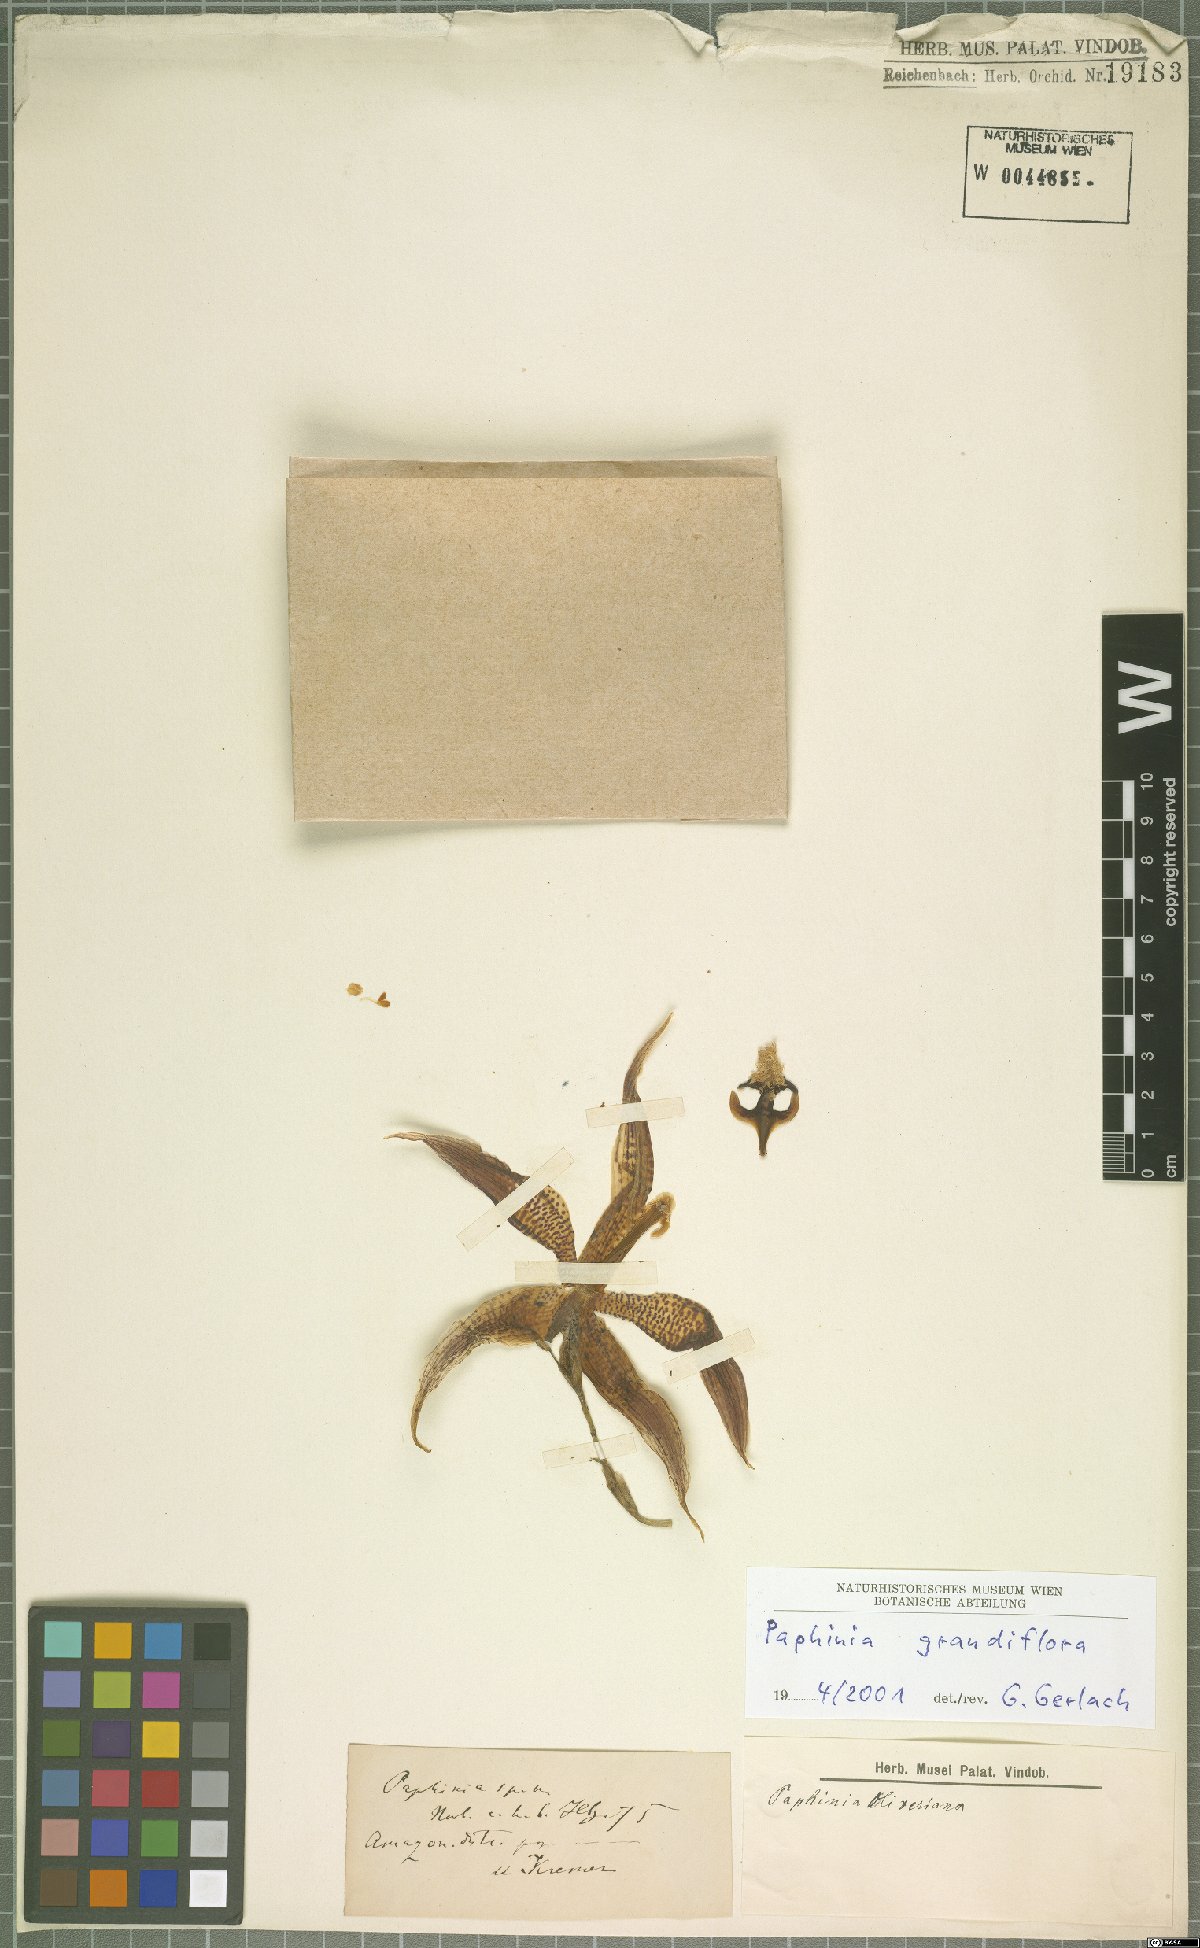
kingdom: Plantae
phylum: Tracheophyta
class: Liliopsida
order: Asparagales
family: Orchidaceae
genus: Paphinia
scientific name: Paphinia grandiflora
